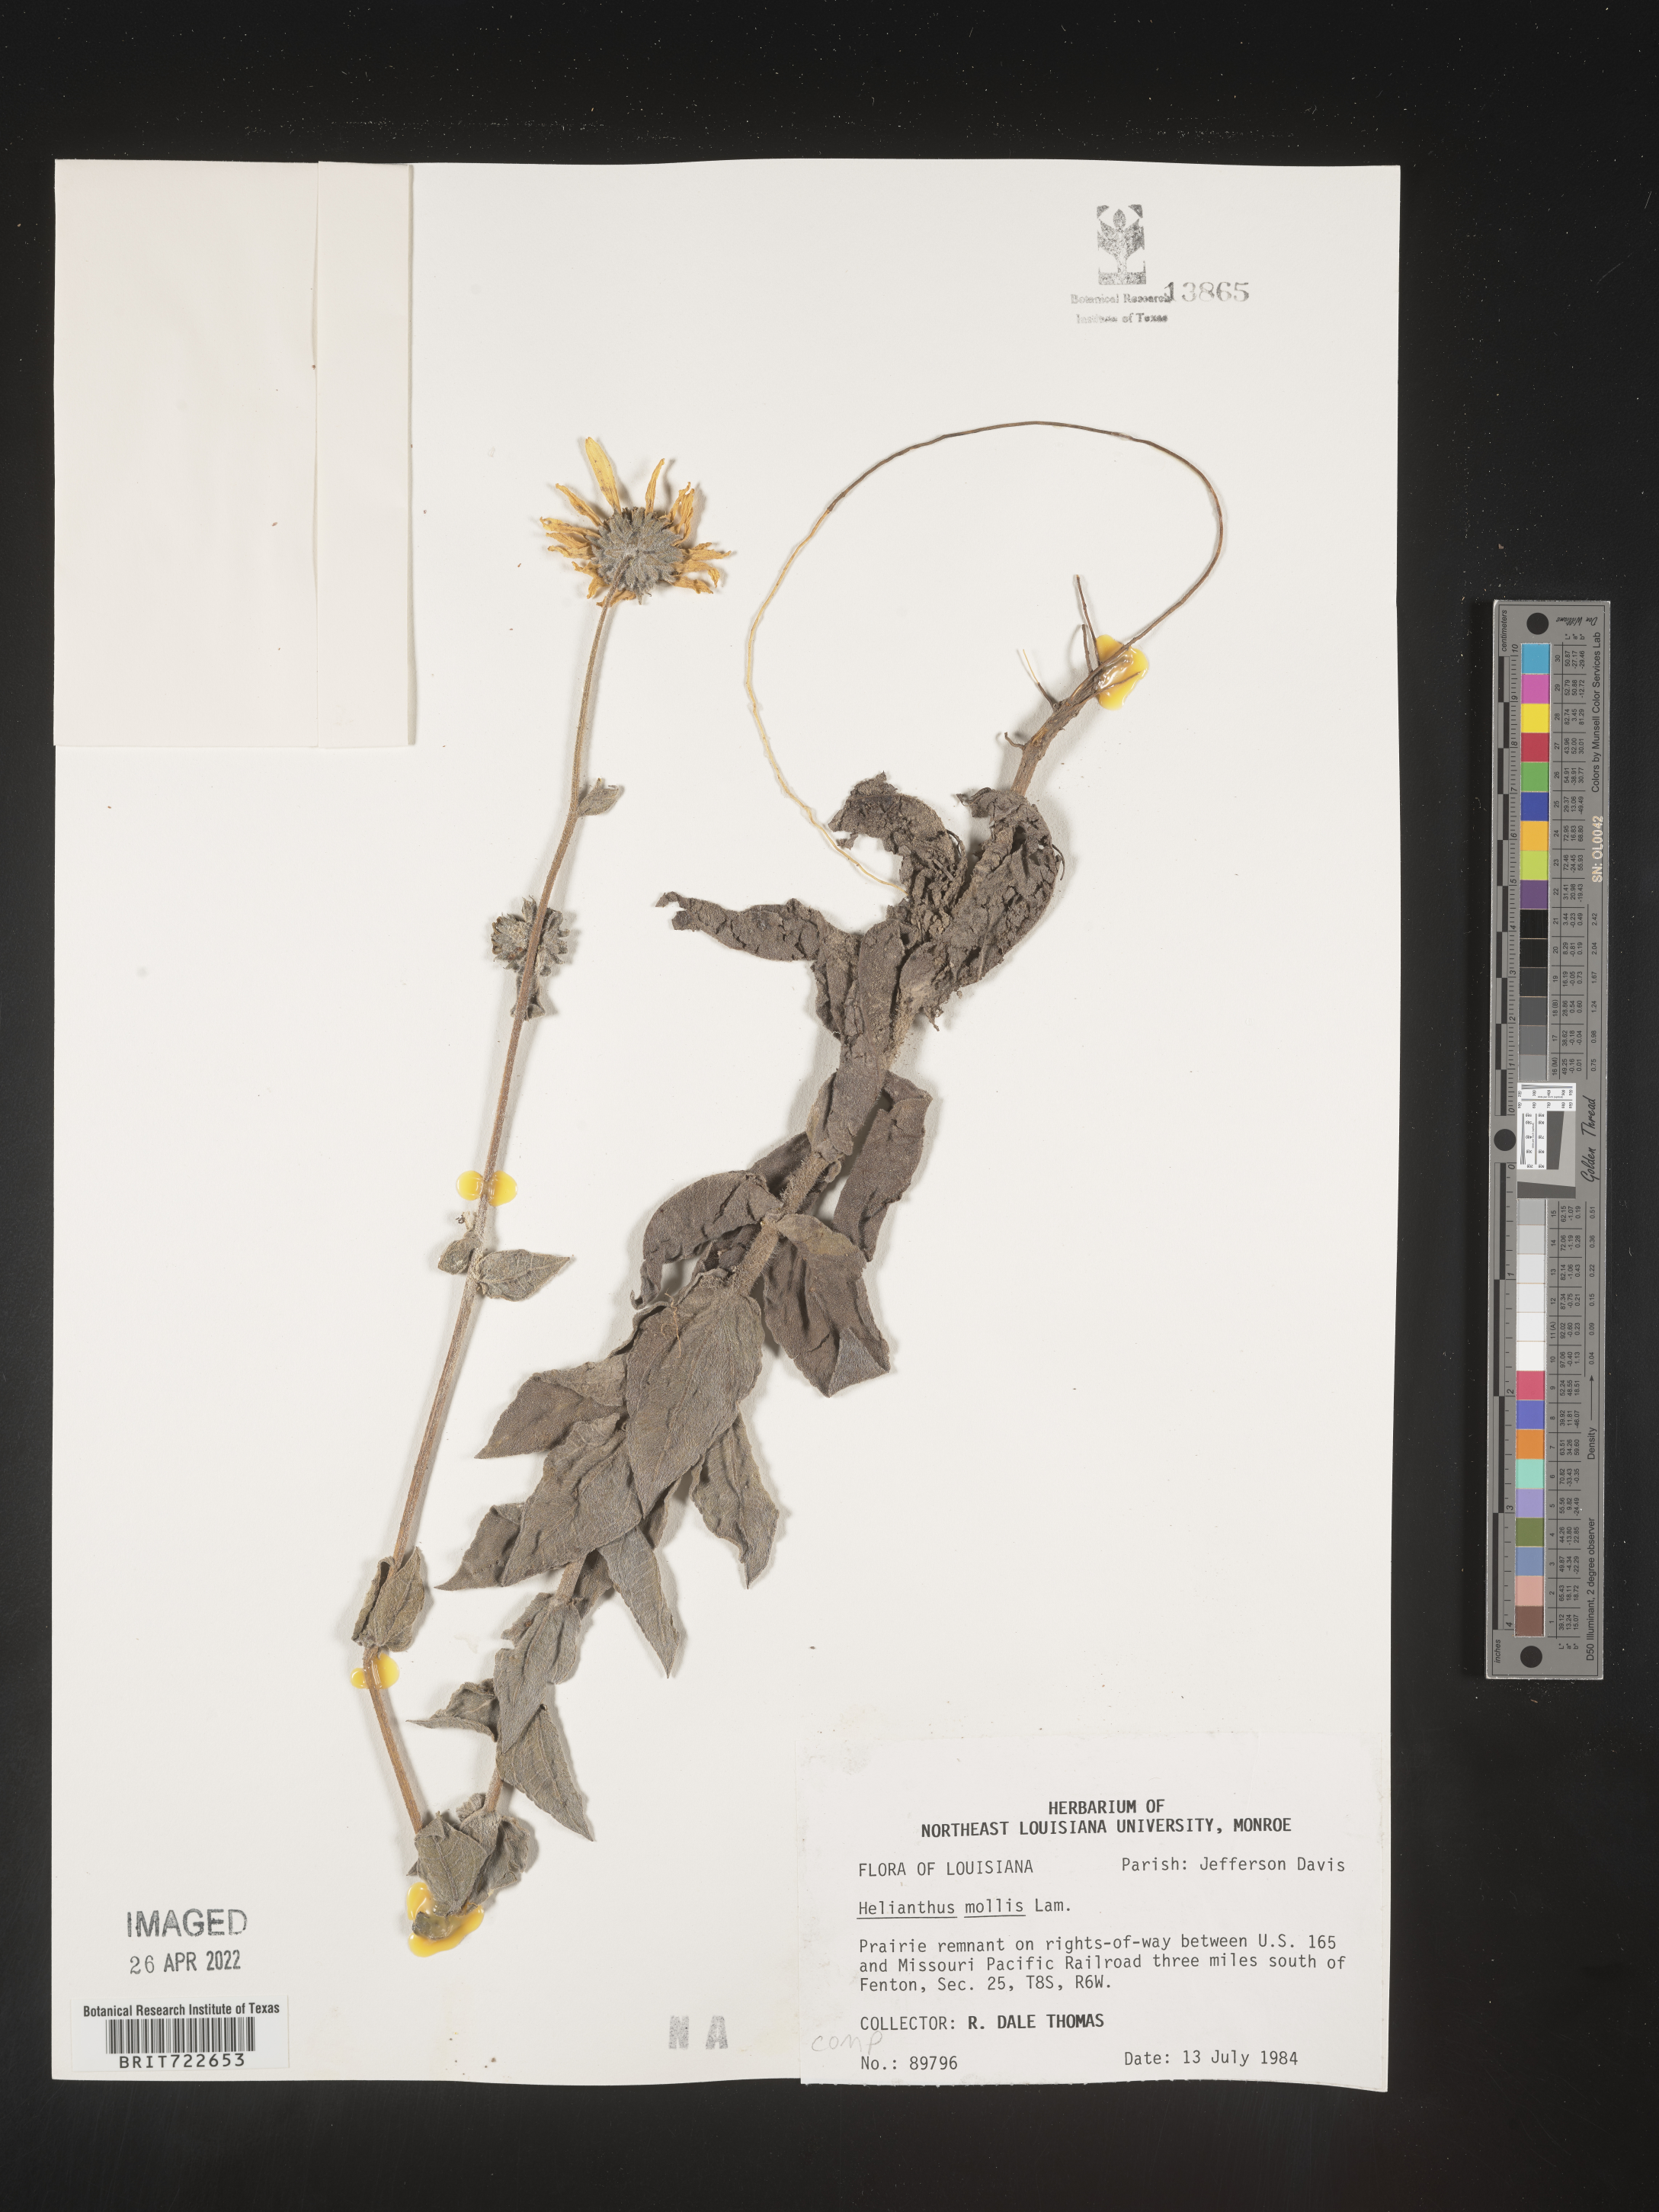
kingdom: Plantae
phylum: Tracheophyta
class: Magnoliopsida
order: Asterales
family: Asteraceae
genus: Helianthus
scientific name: Helianthus mollis
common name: Ashy sunflower
